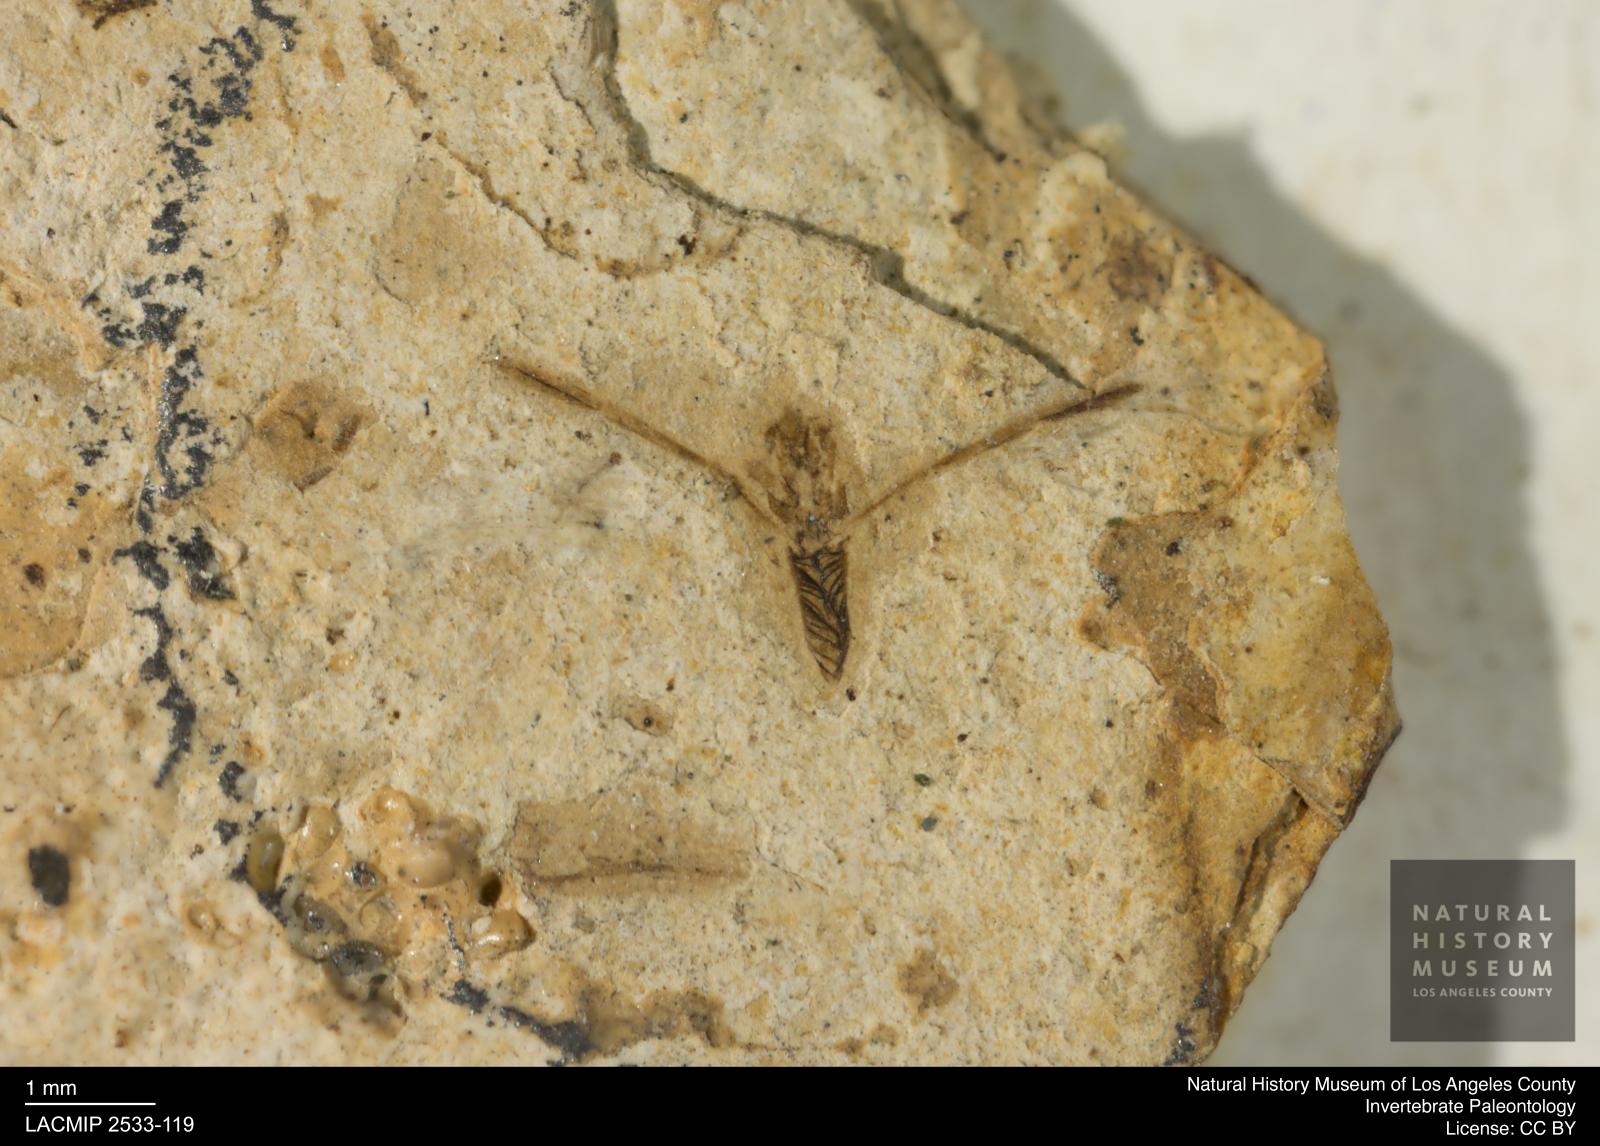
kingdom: Animalia
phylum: Arthropoda
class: Insecta
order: Hemiptera
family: Notonectidae
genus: Anisops
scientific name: Anisops Notonecta heydeni
